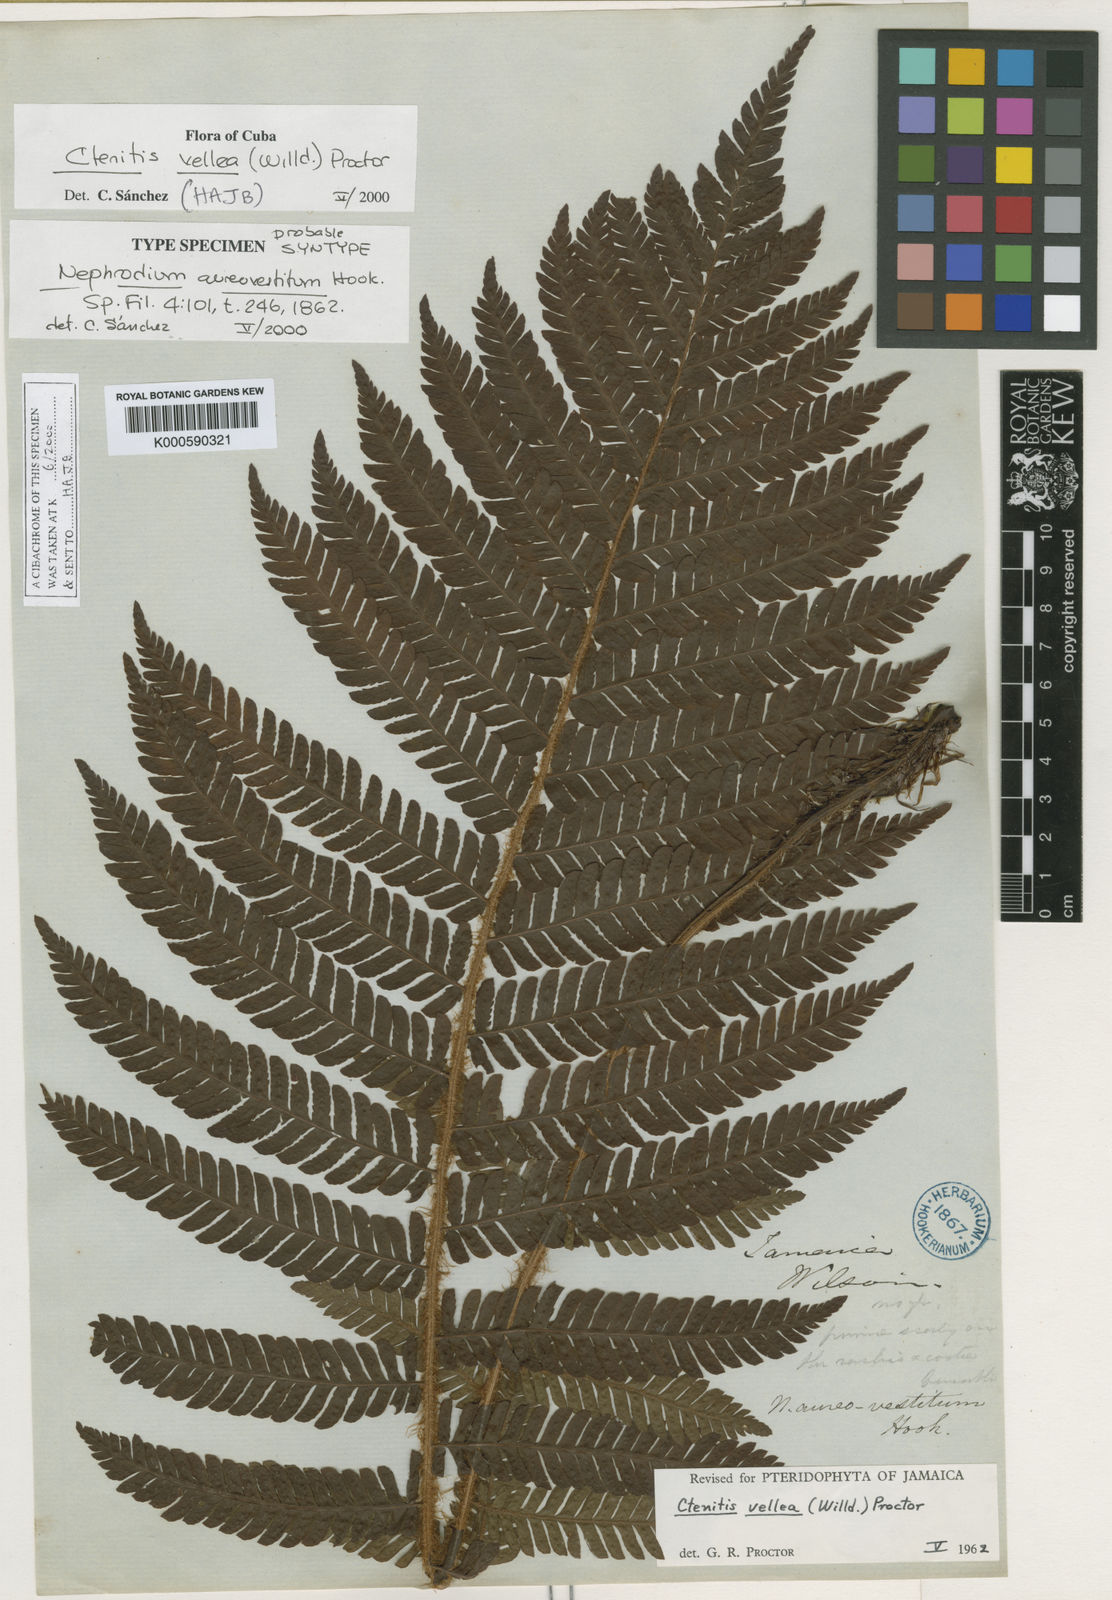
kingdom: Plantae
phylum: Tracheophyta
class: Polypodiopsida
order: Polypodiales
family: Dryopteridaceae
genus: Ctenitis
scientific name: Ctenitis vellea
